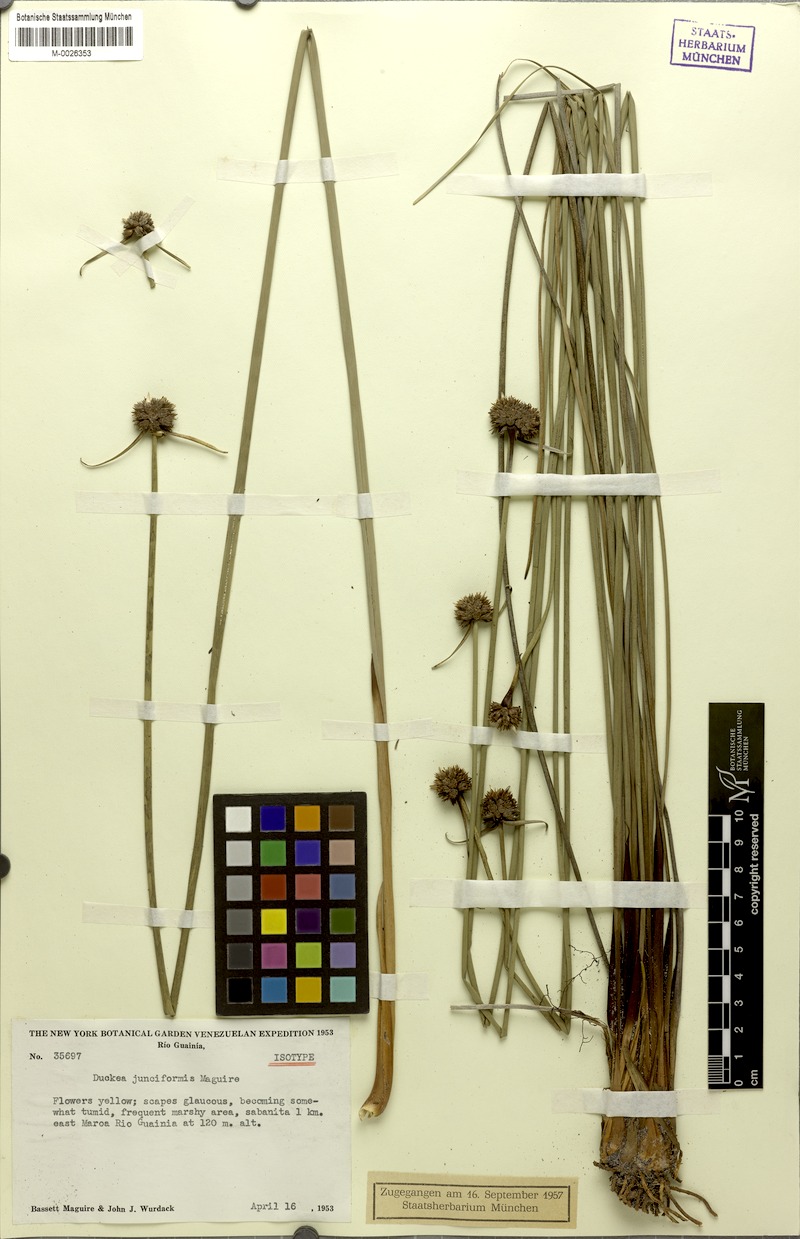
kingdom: Plantae
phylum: Tracheophyta
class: Liliopsida
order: Poales
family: Rapateaceae
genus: Duckea
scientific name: Duckea junciformis
